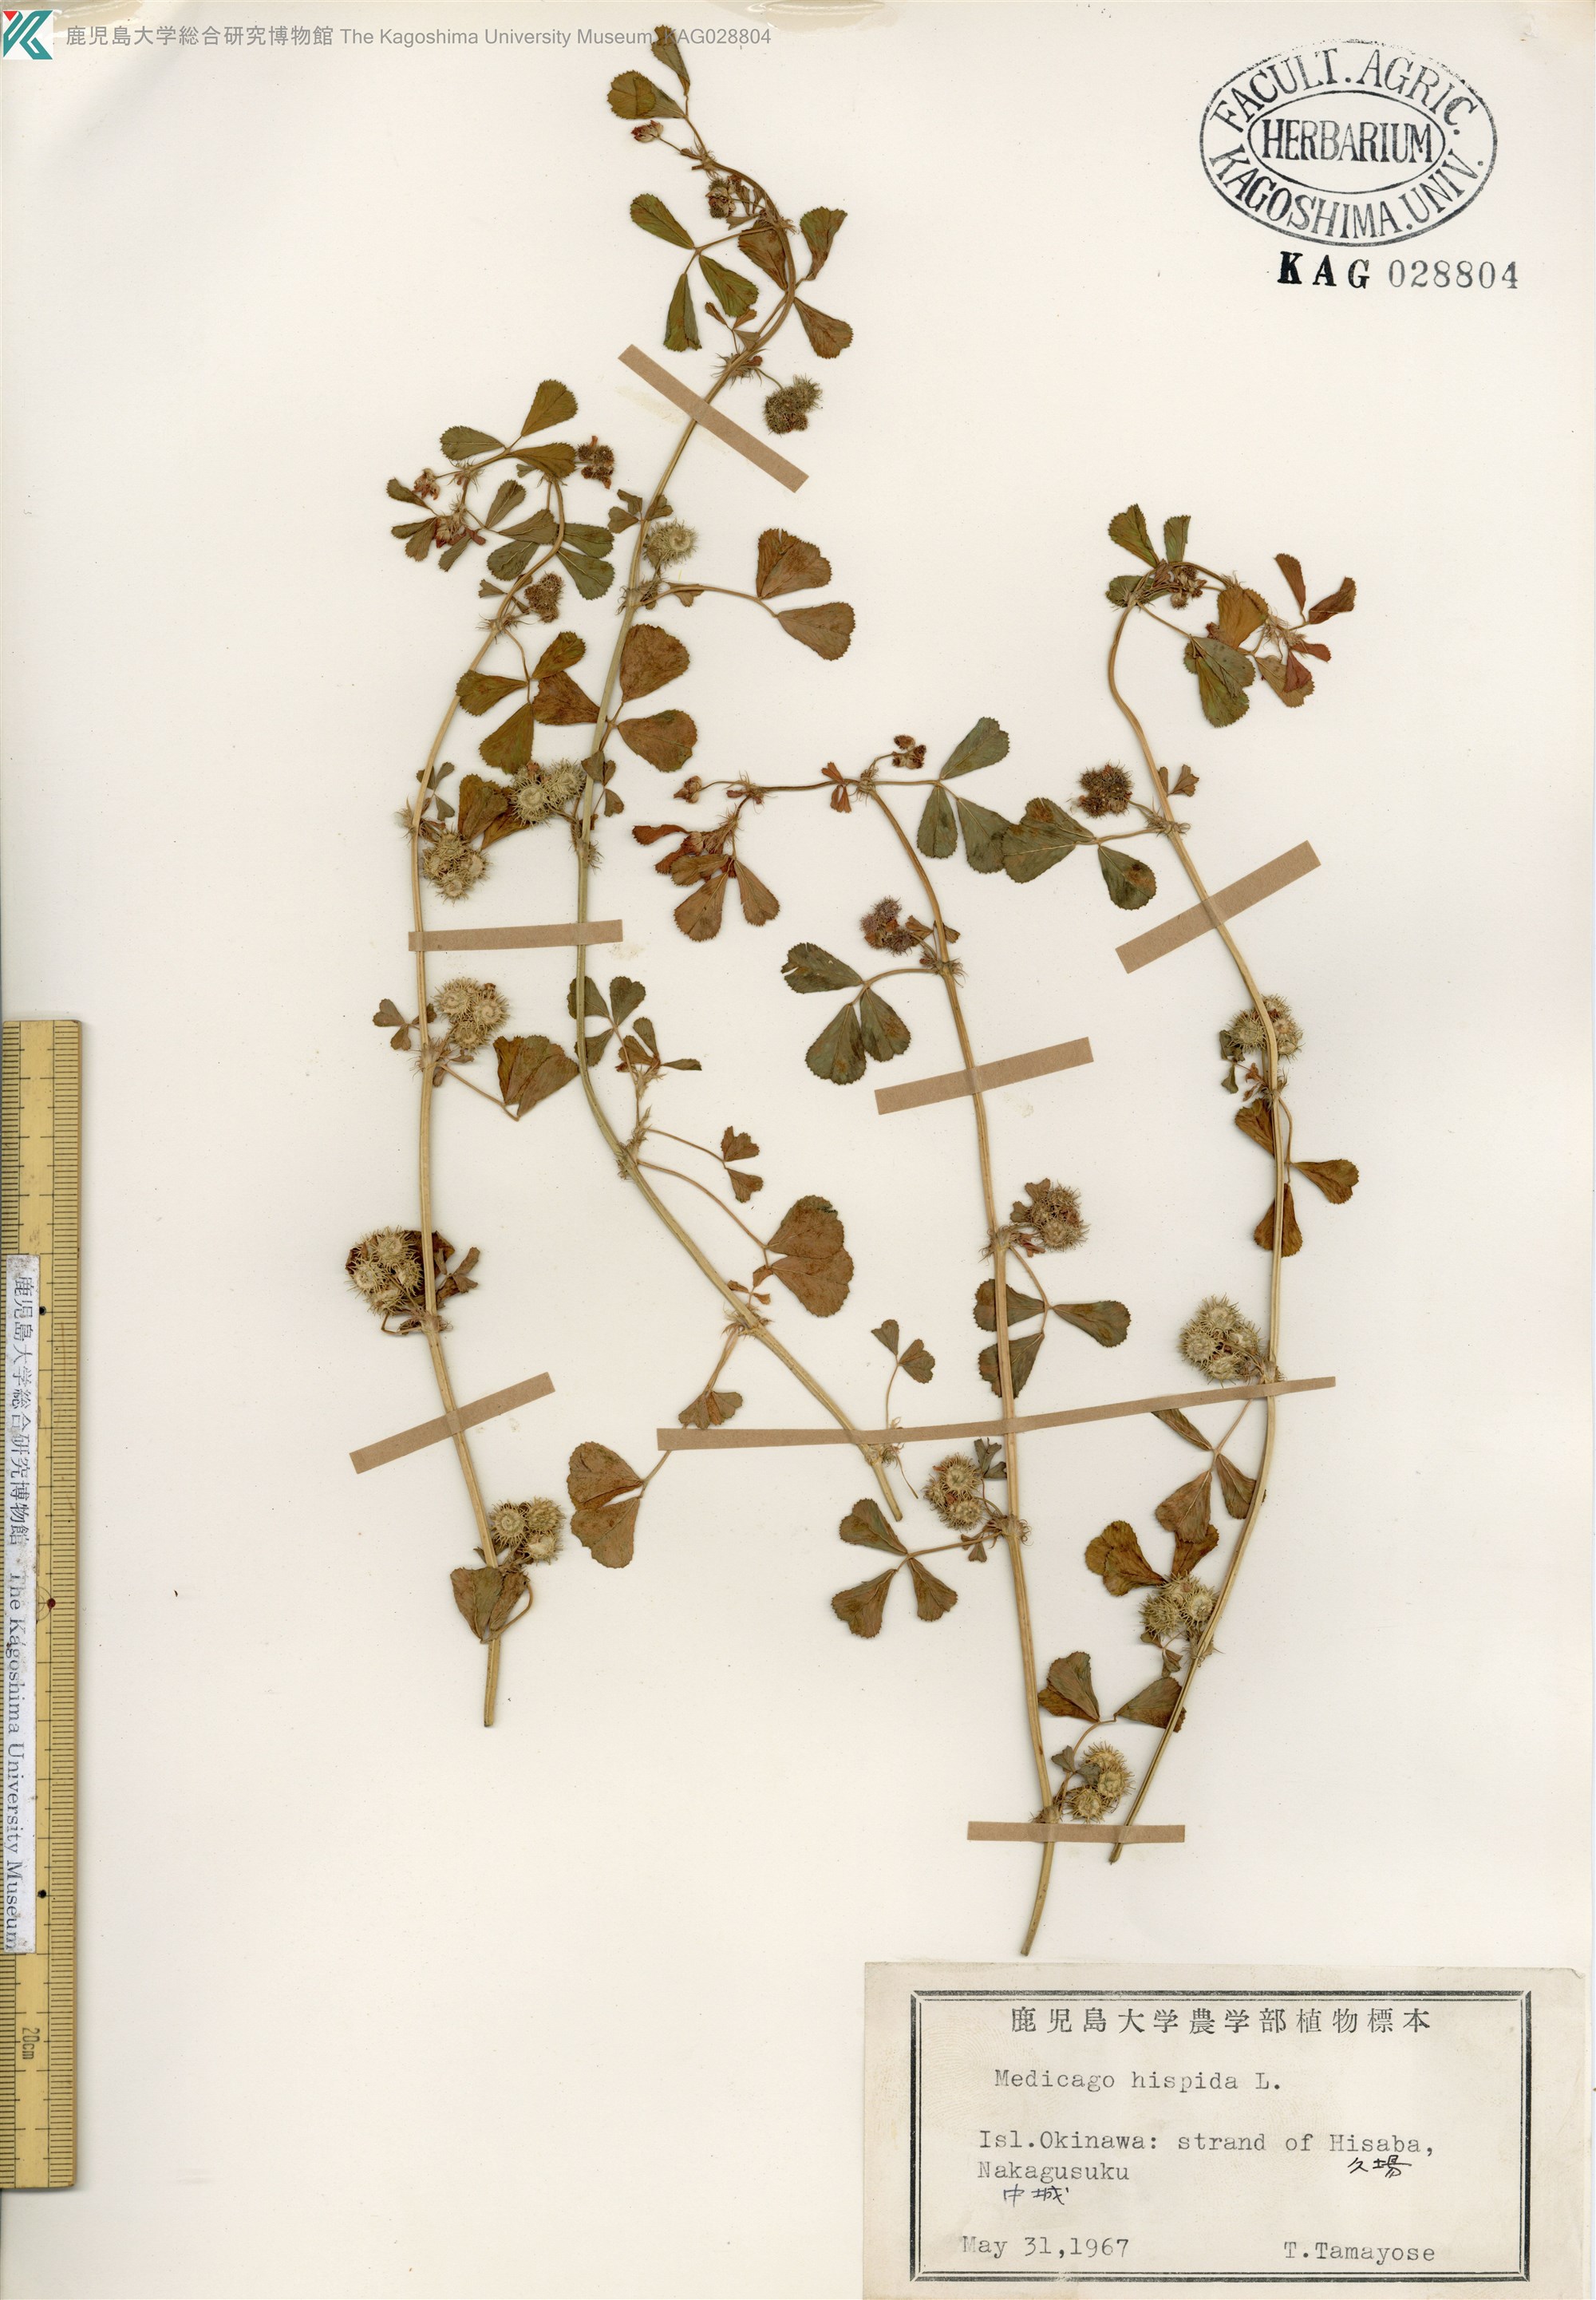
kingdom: Plantae
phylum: Tracheophyta
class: Magnoliopsida
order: Fabales
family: Fabaceae
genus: Medicago
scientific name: Medicago polymorpha
